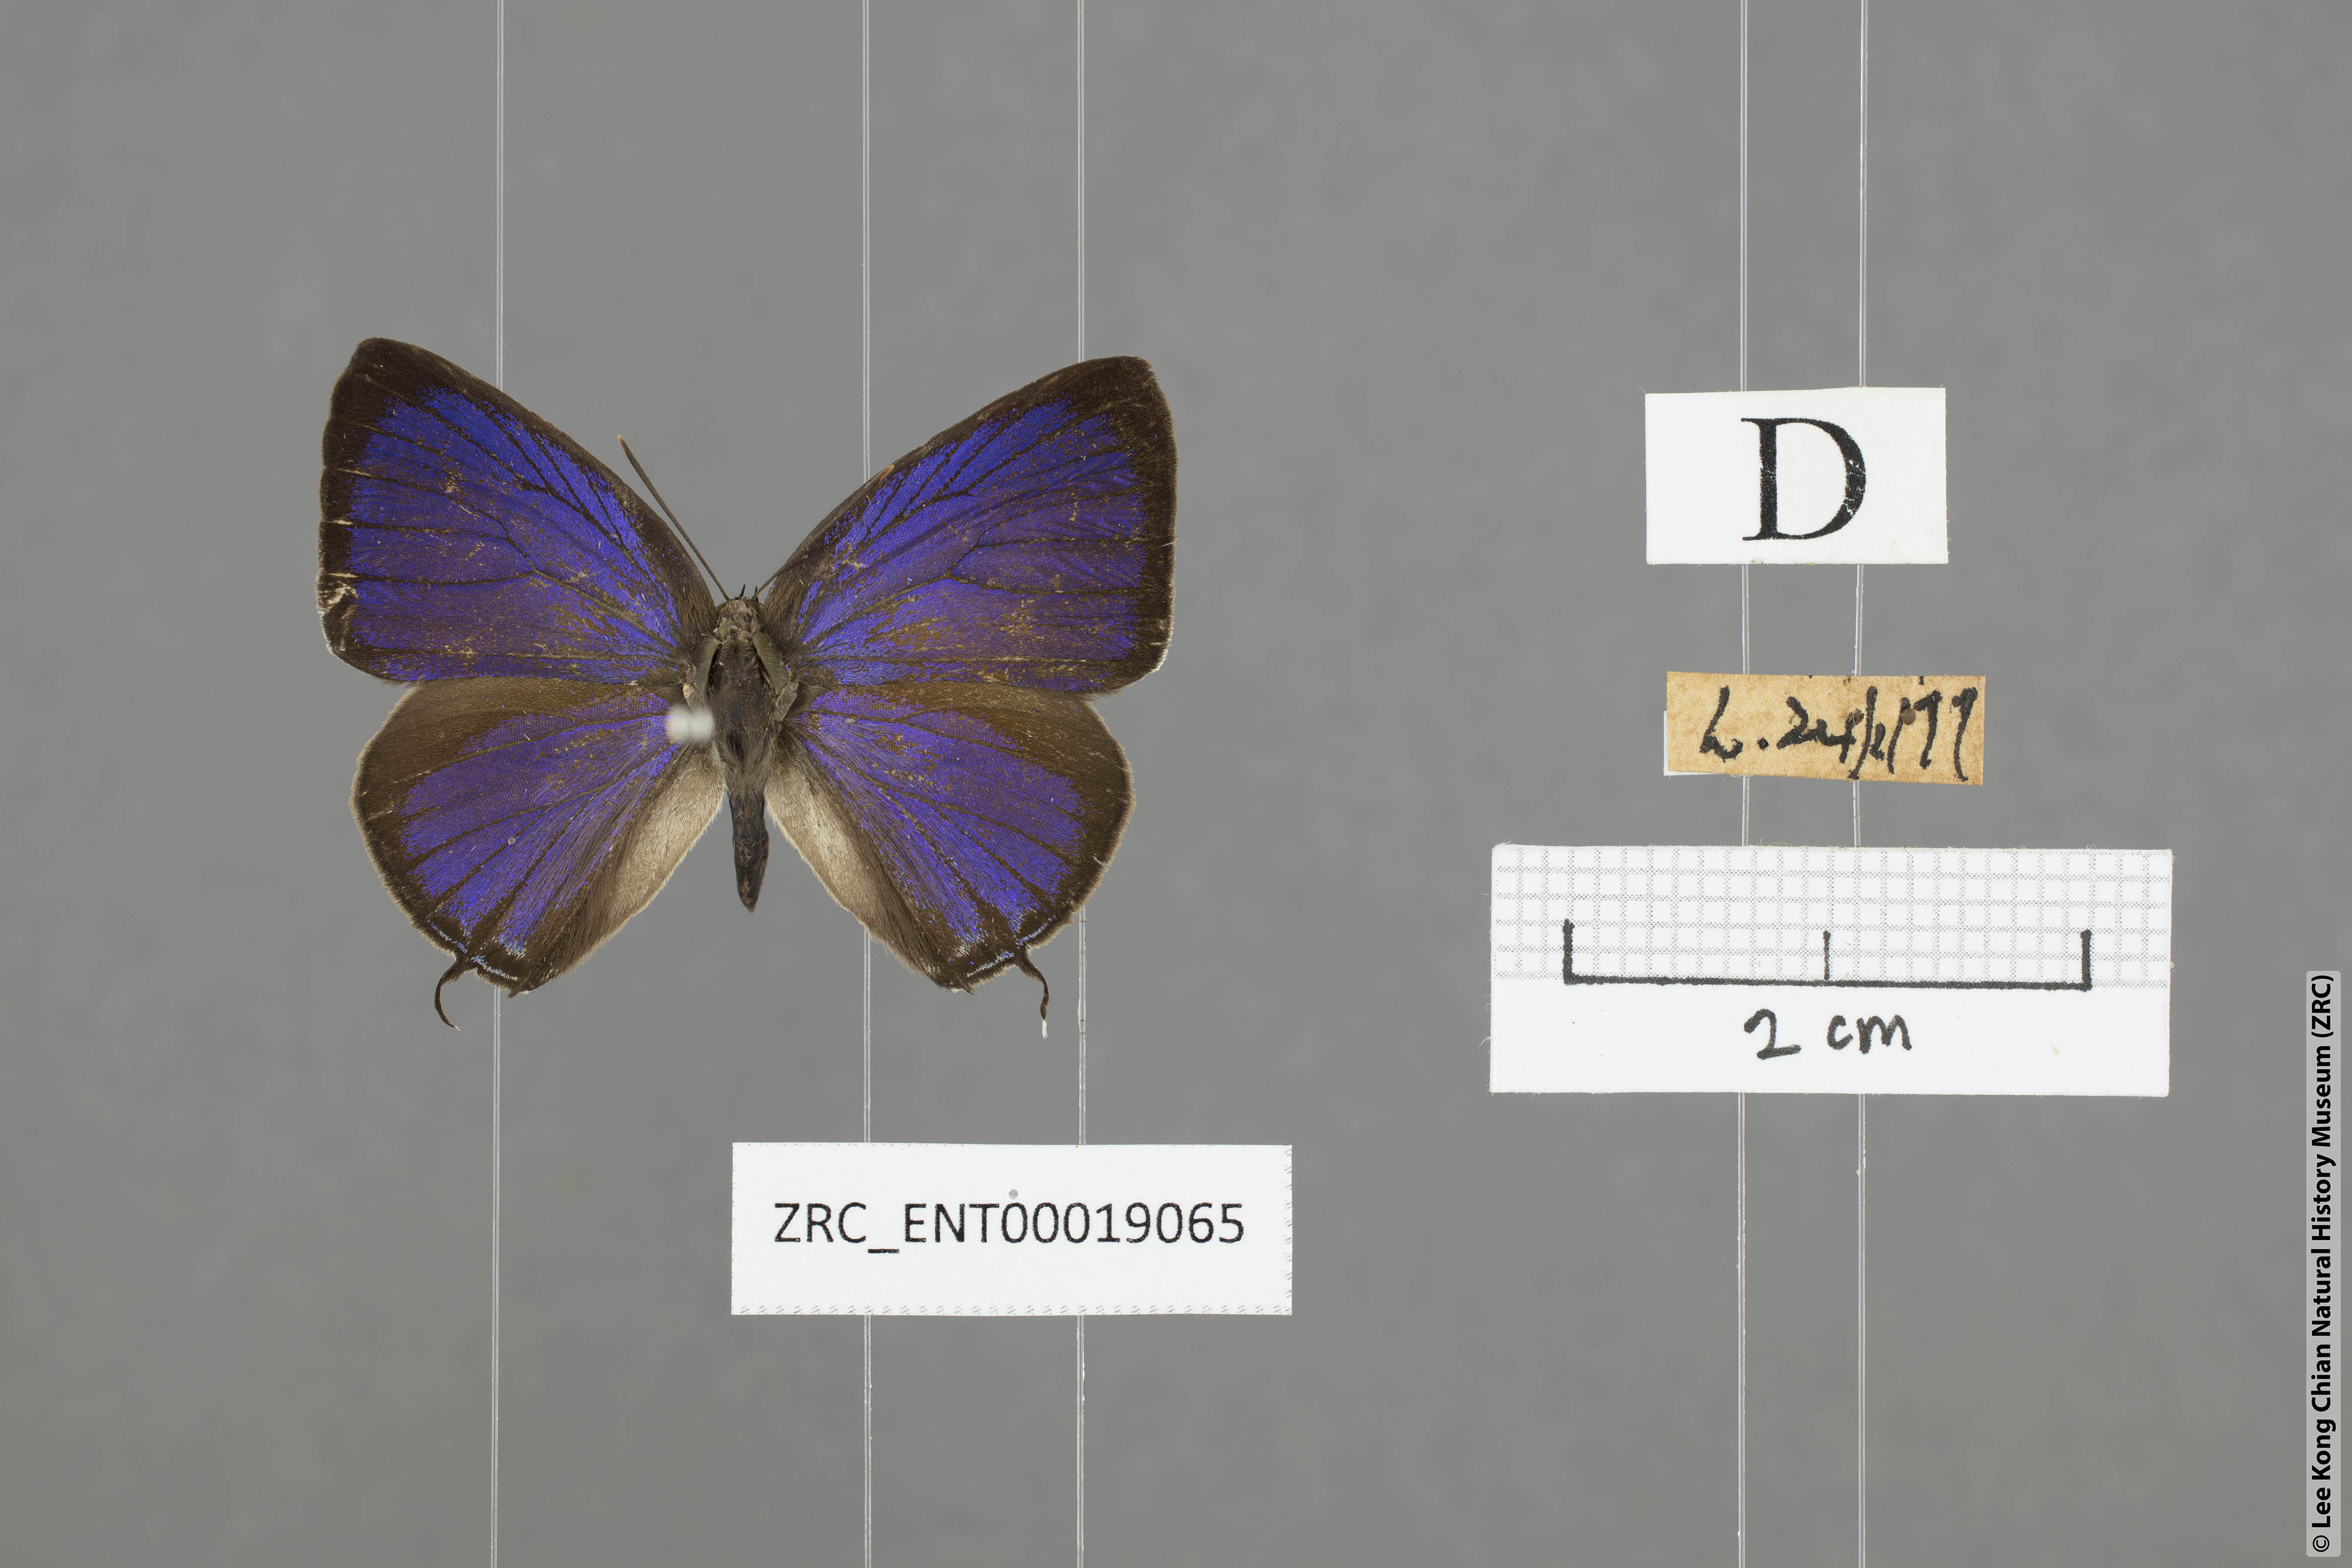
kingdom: Animalia
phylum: Arthropoda
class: Insecta
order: Lepidoptera
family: Lycaenidae
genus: Arhopala
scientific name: Arhopala aida
